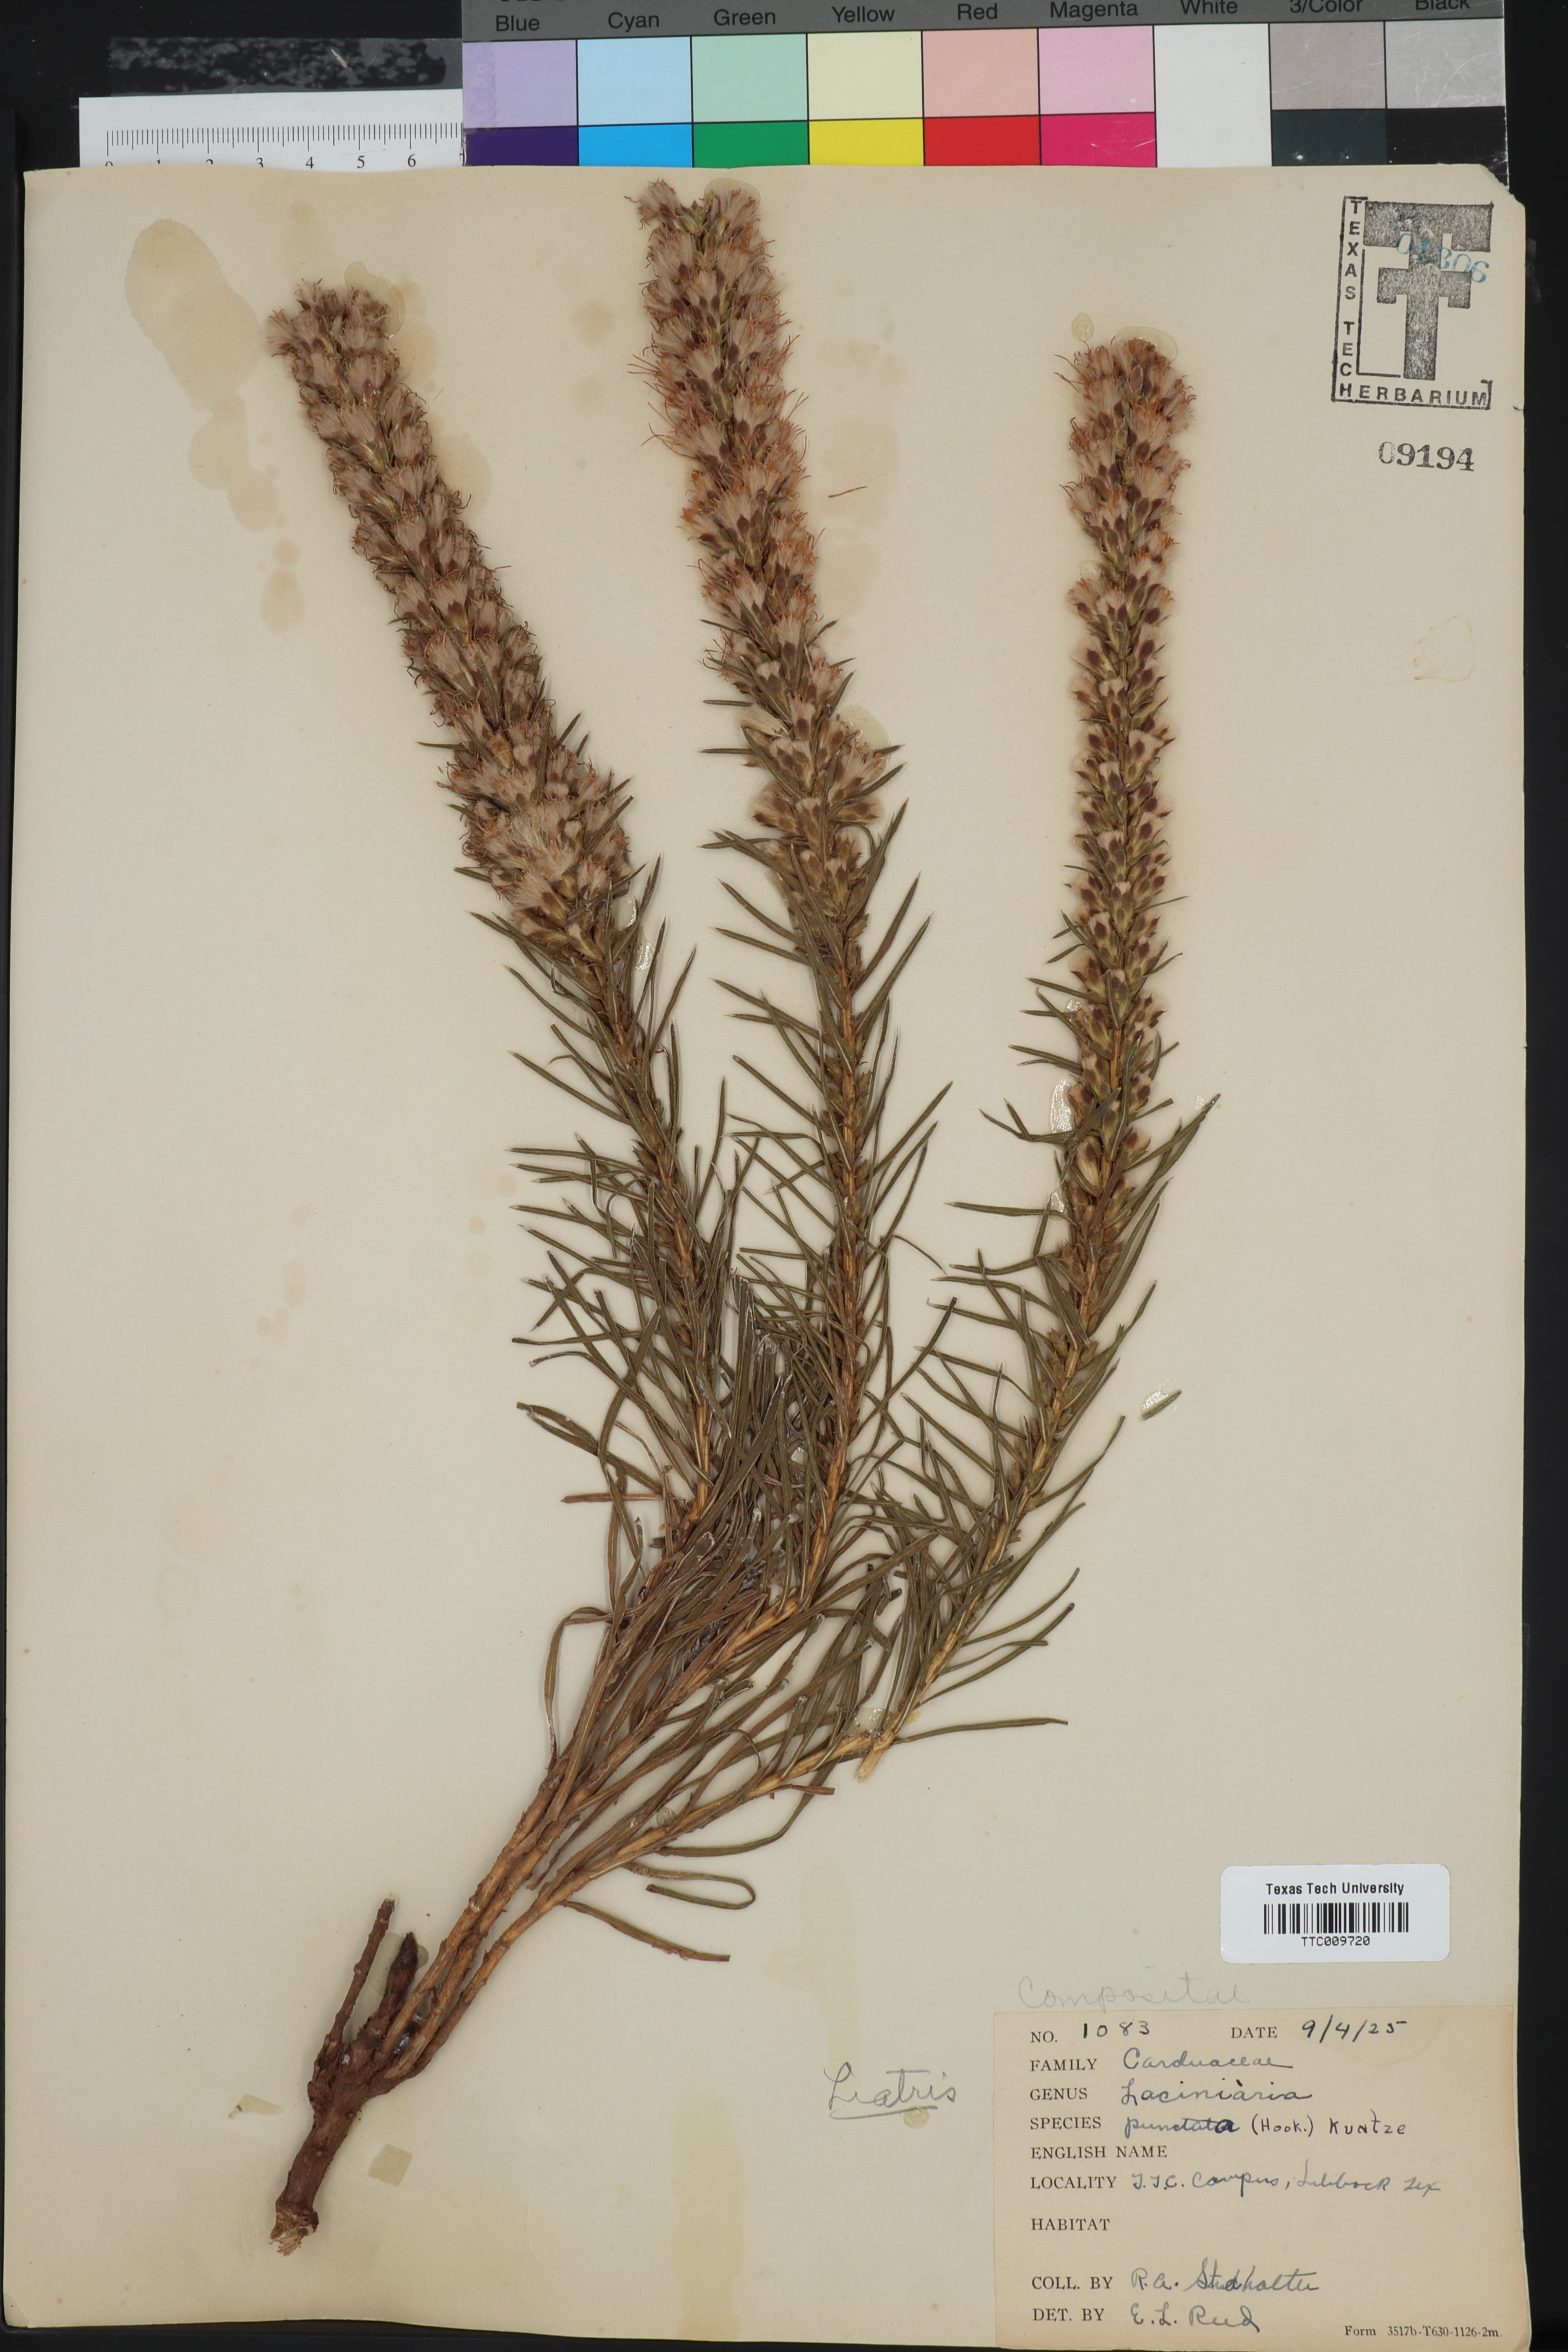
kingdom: Plantae
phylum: Tracheophyta
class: Magnoliopsida
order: Asterales
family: Asteraceae
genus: Liatris
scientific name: Liatris punctata
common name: Dotted gayfeather
